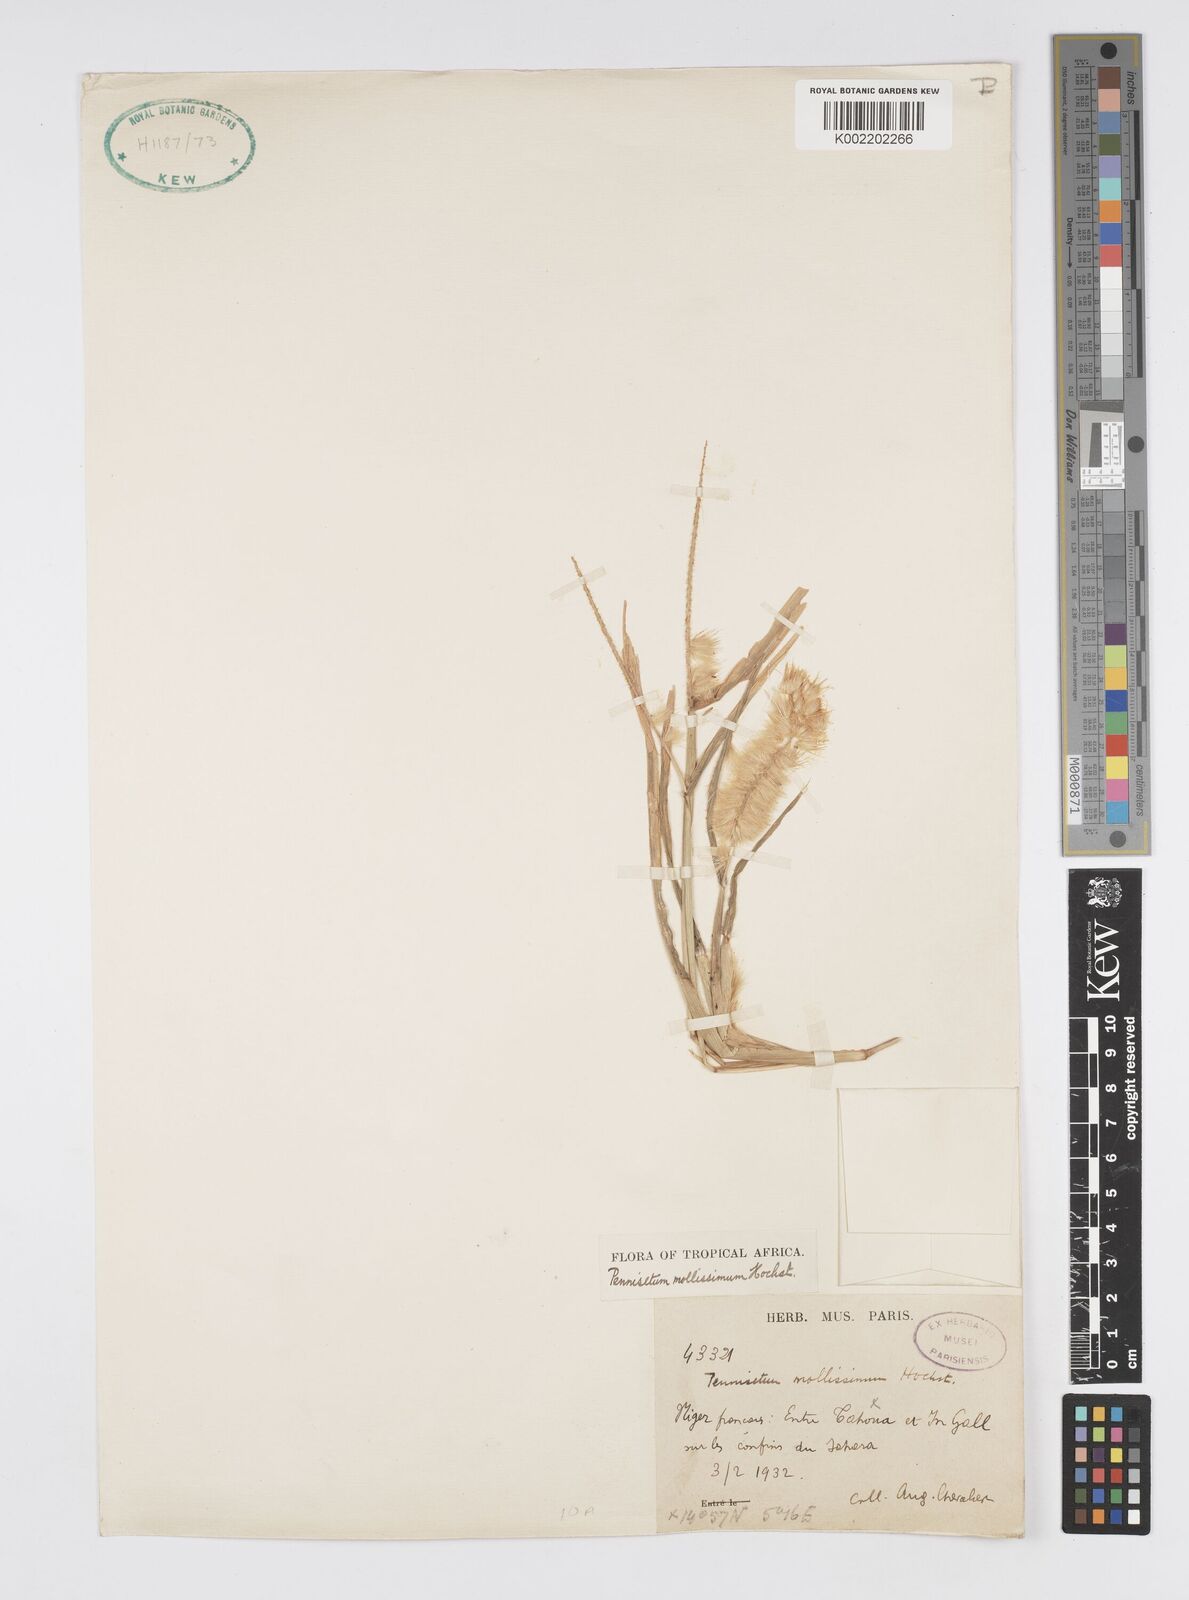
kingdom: Plantae
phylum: Tracheophyta
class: Liliopsida
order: Poales
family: Poaceae
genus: Cenchrus
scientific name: Cenchrus violaceus
